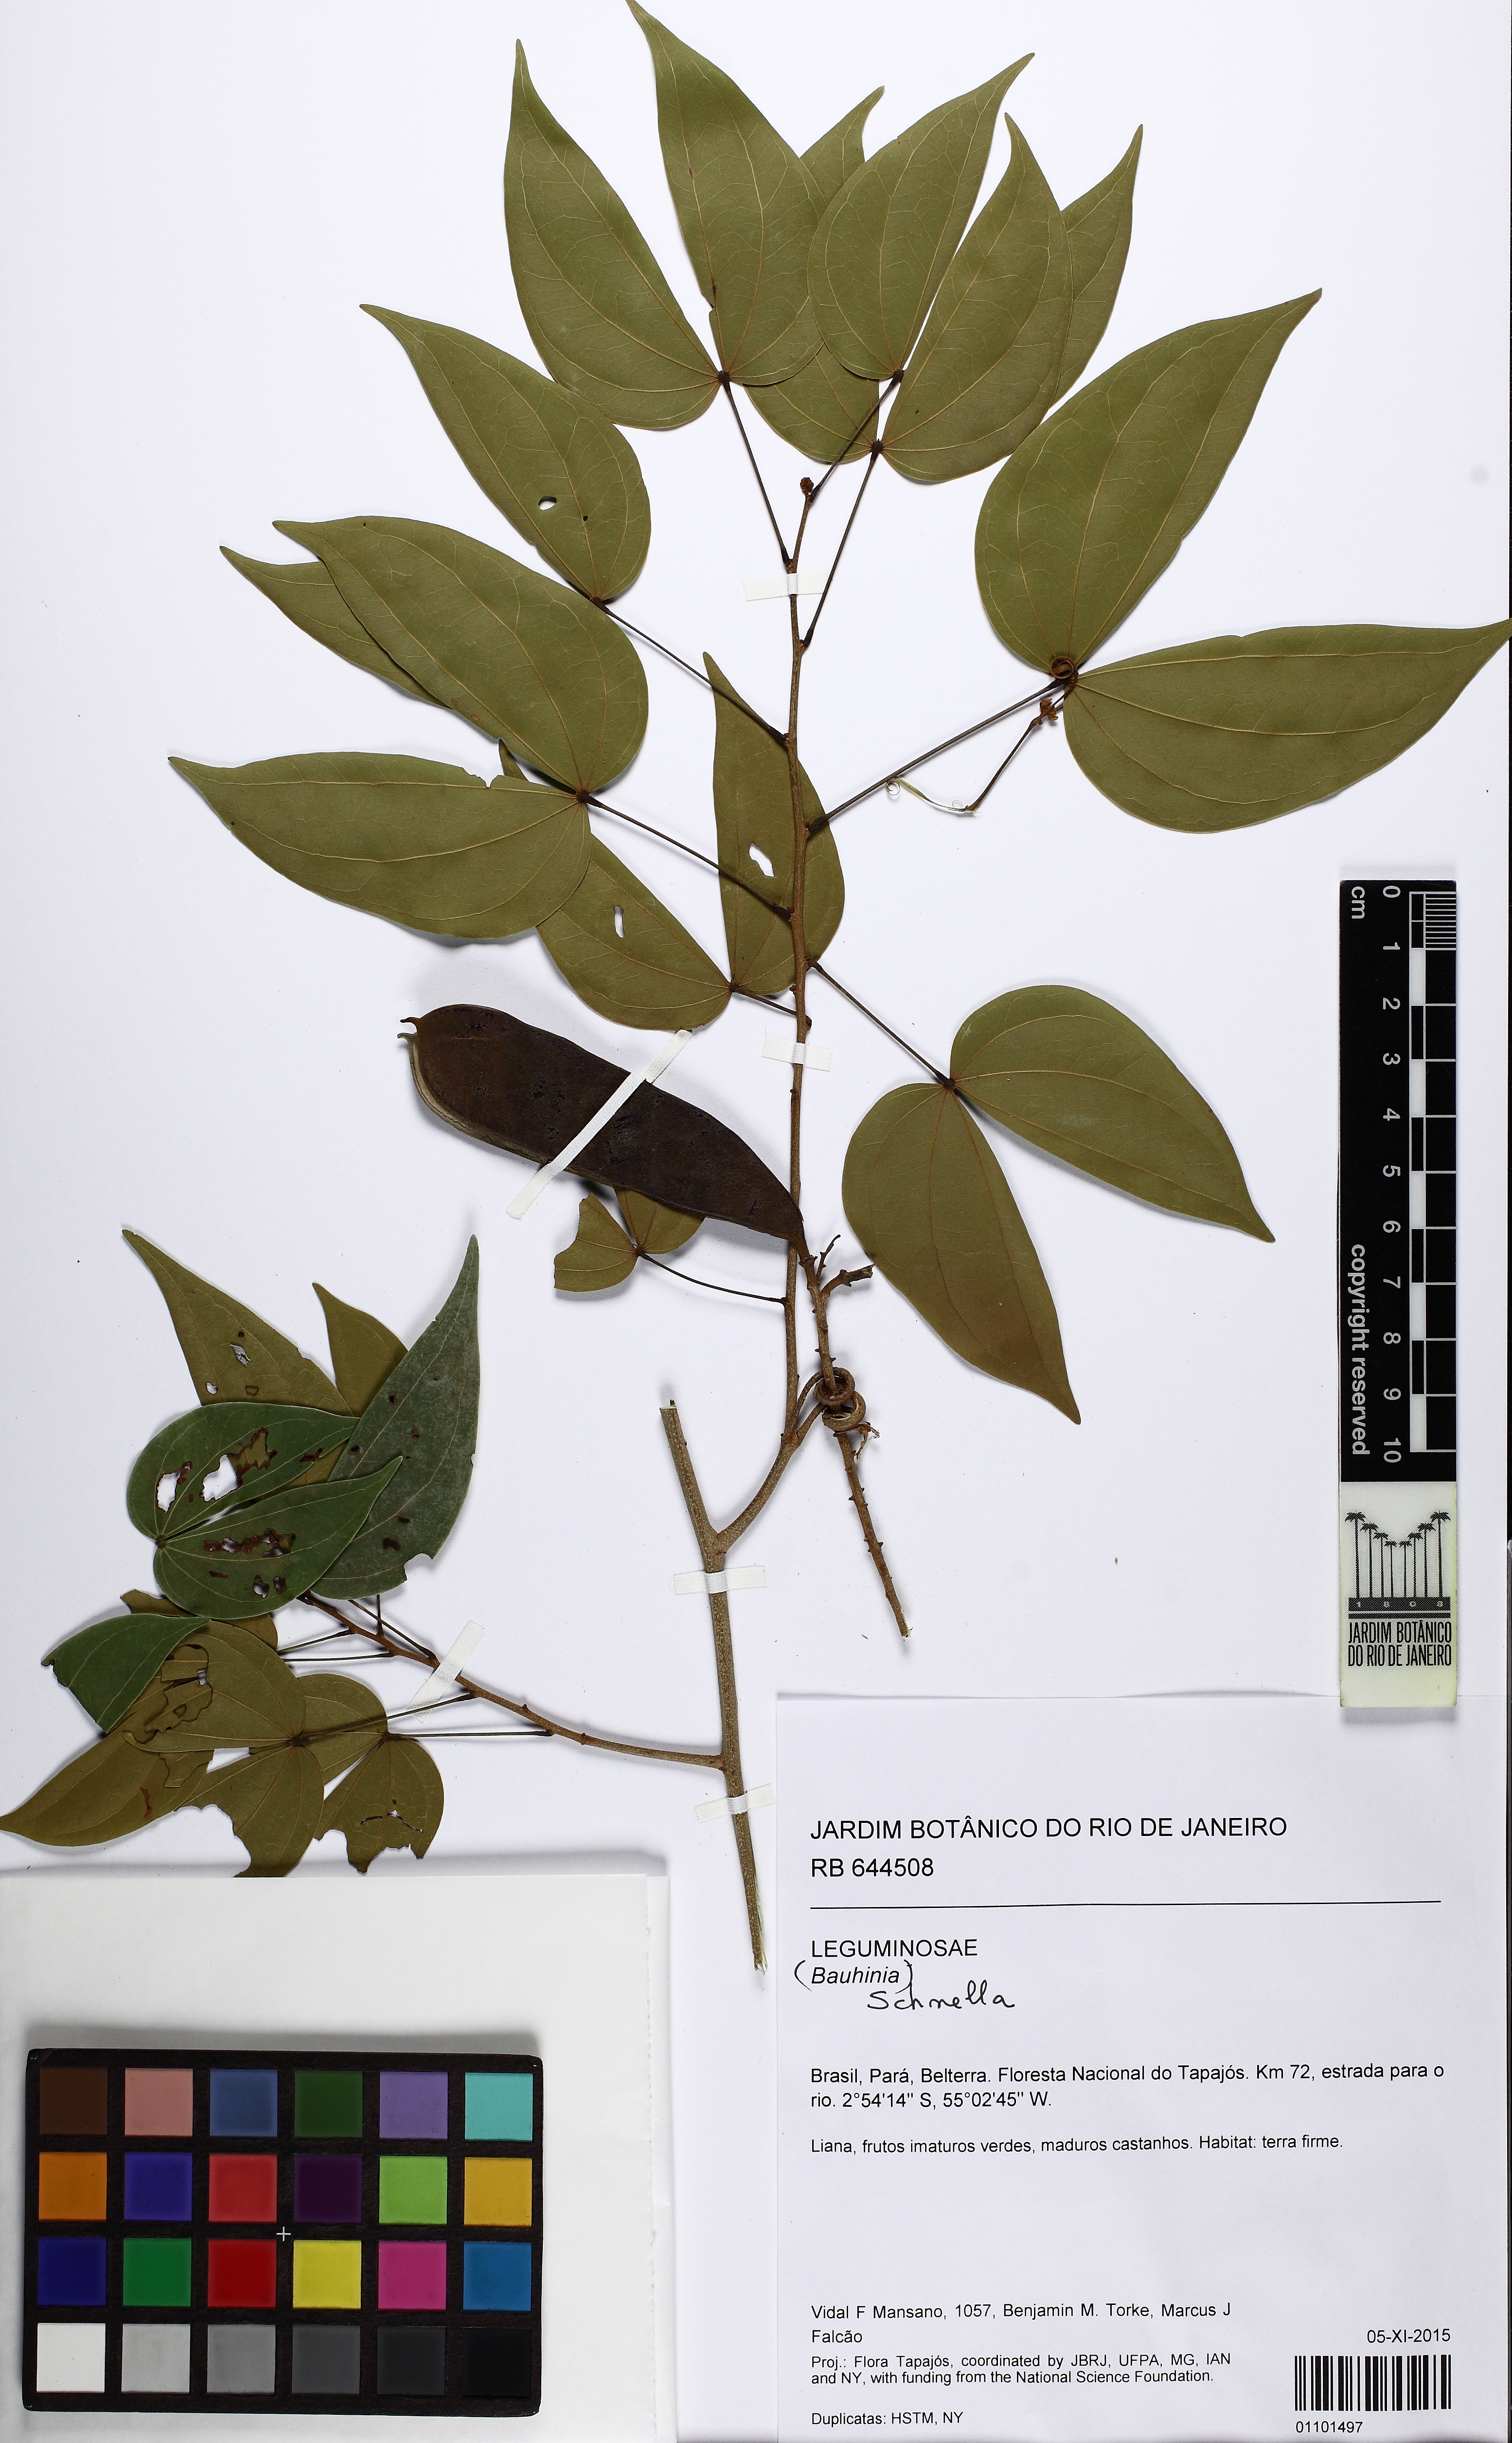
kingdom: Plantae
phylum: Tracheophyta
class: Magnoliopsida
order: Fabales
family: Fabaceae
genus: Schnella
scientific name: Schnella splendens
